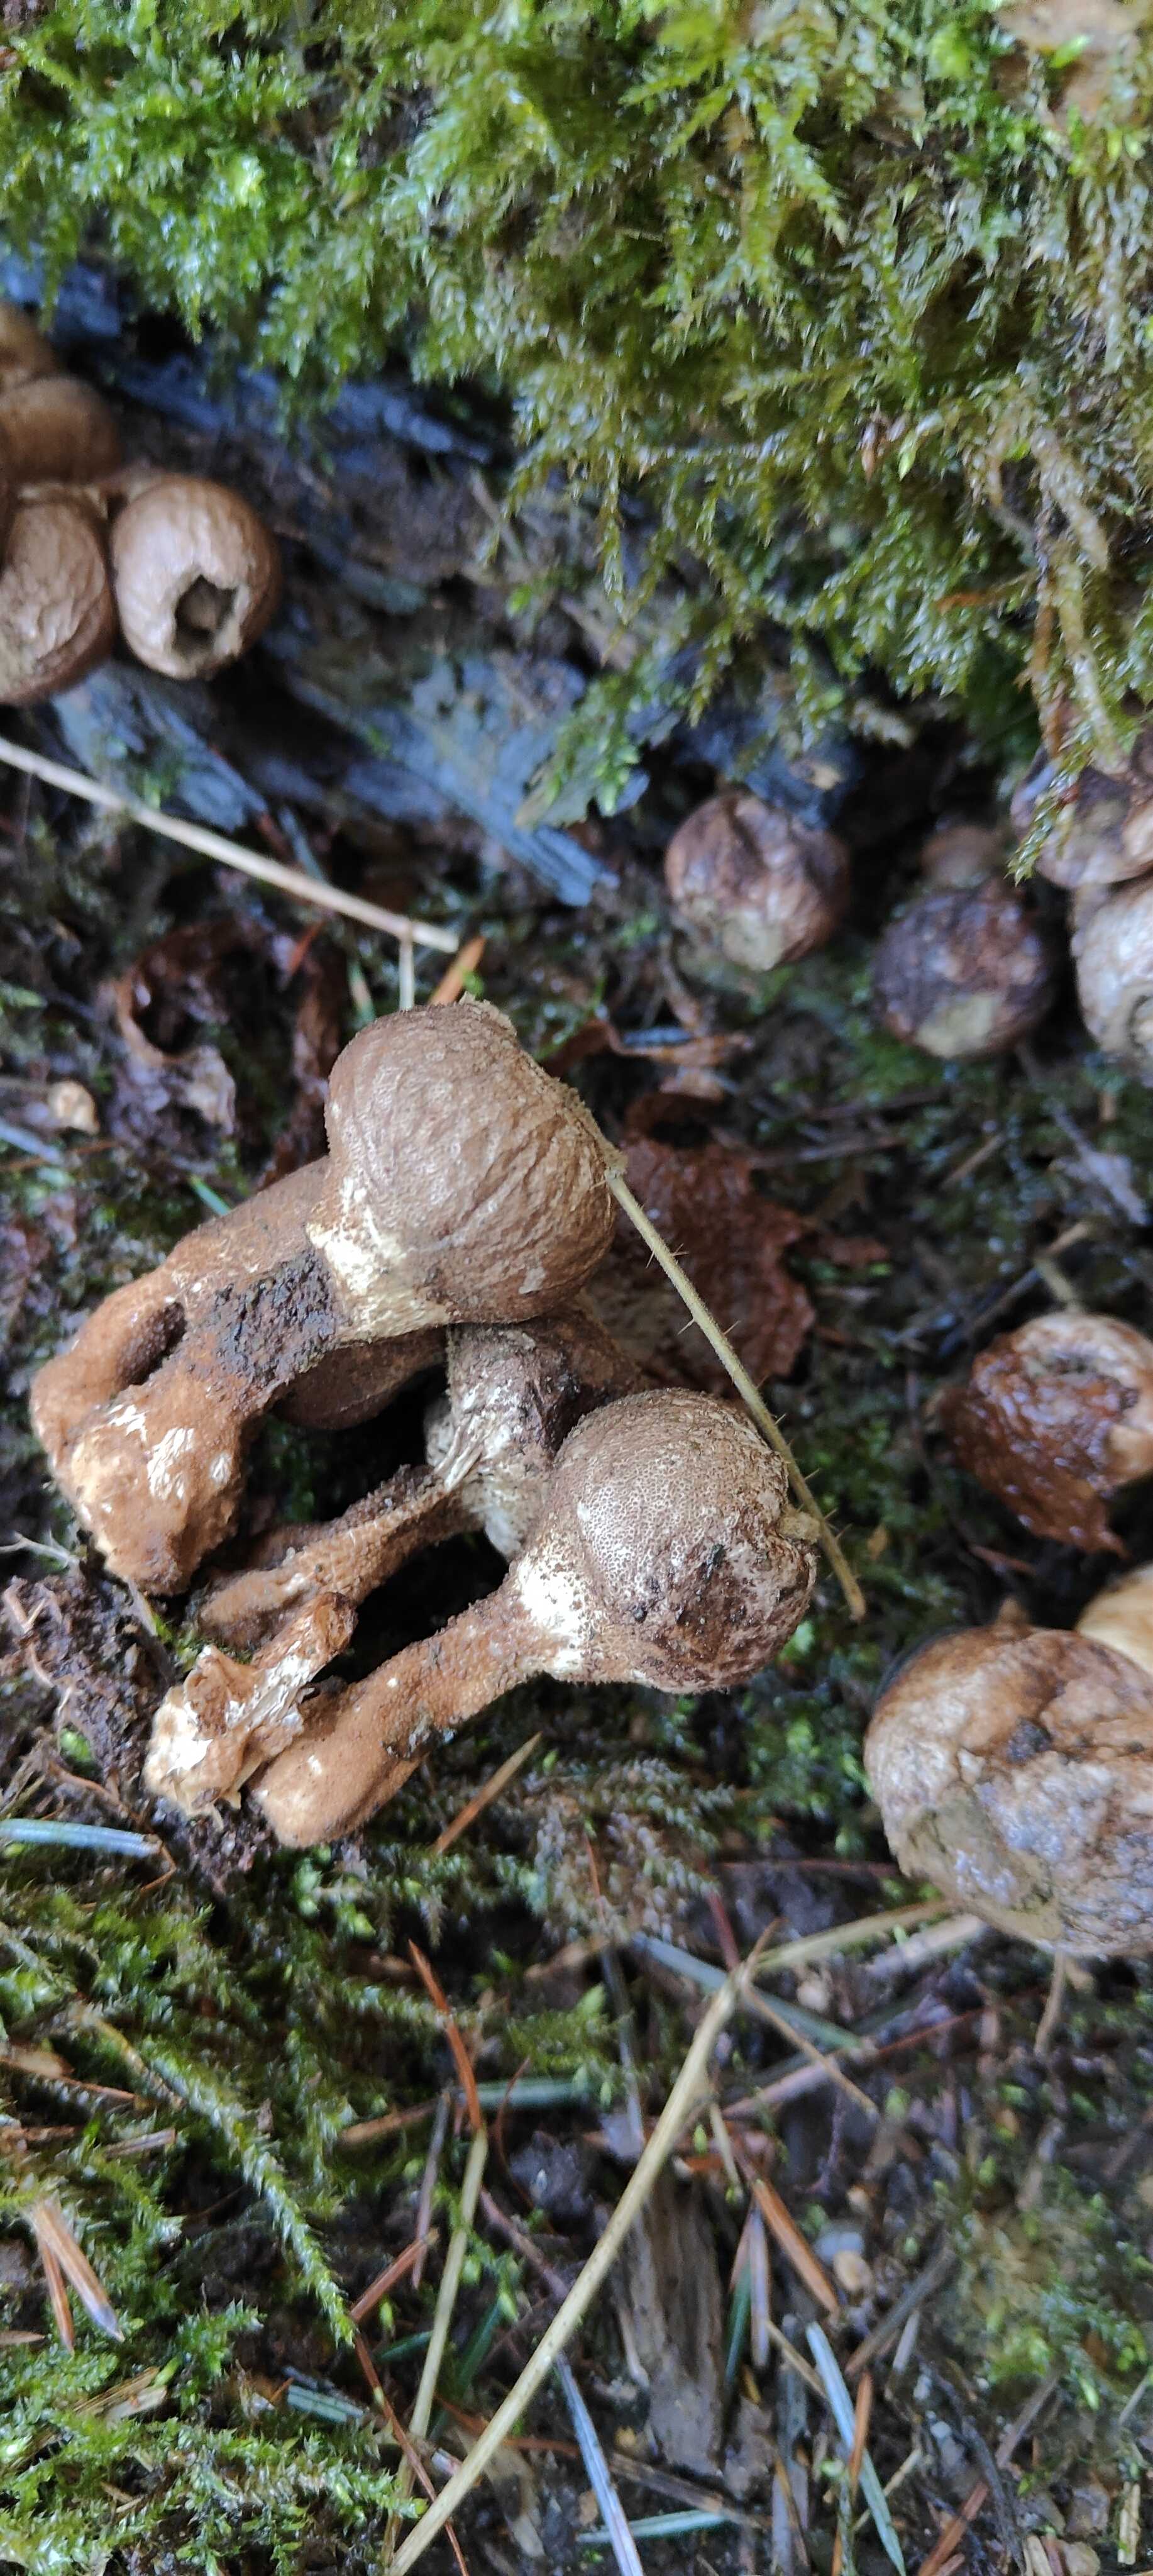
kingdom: Fungi
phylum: Basidiomycota
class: Agaricomycetes
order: Agaricales
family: Lycoperdaceae
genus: Apioperdon
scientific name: Apioperdon pyriforme
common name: pære-støvbold
